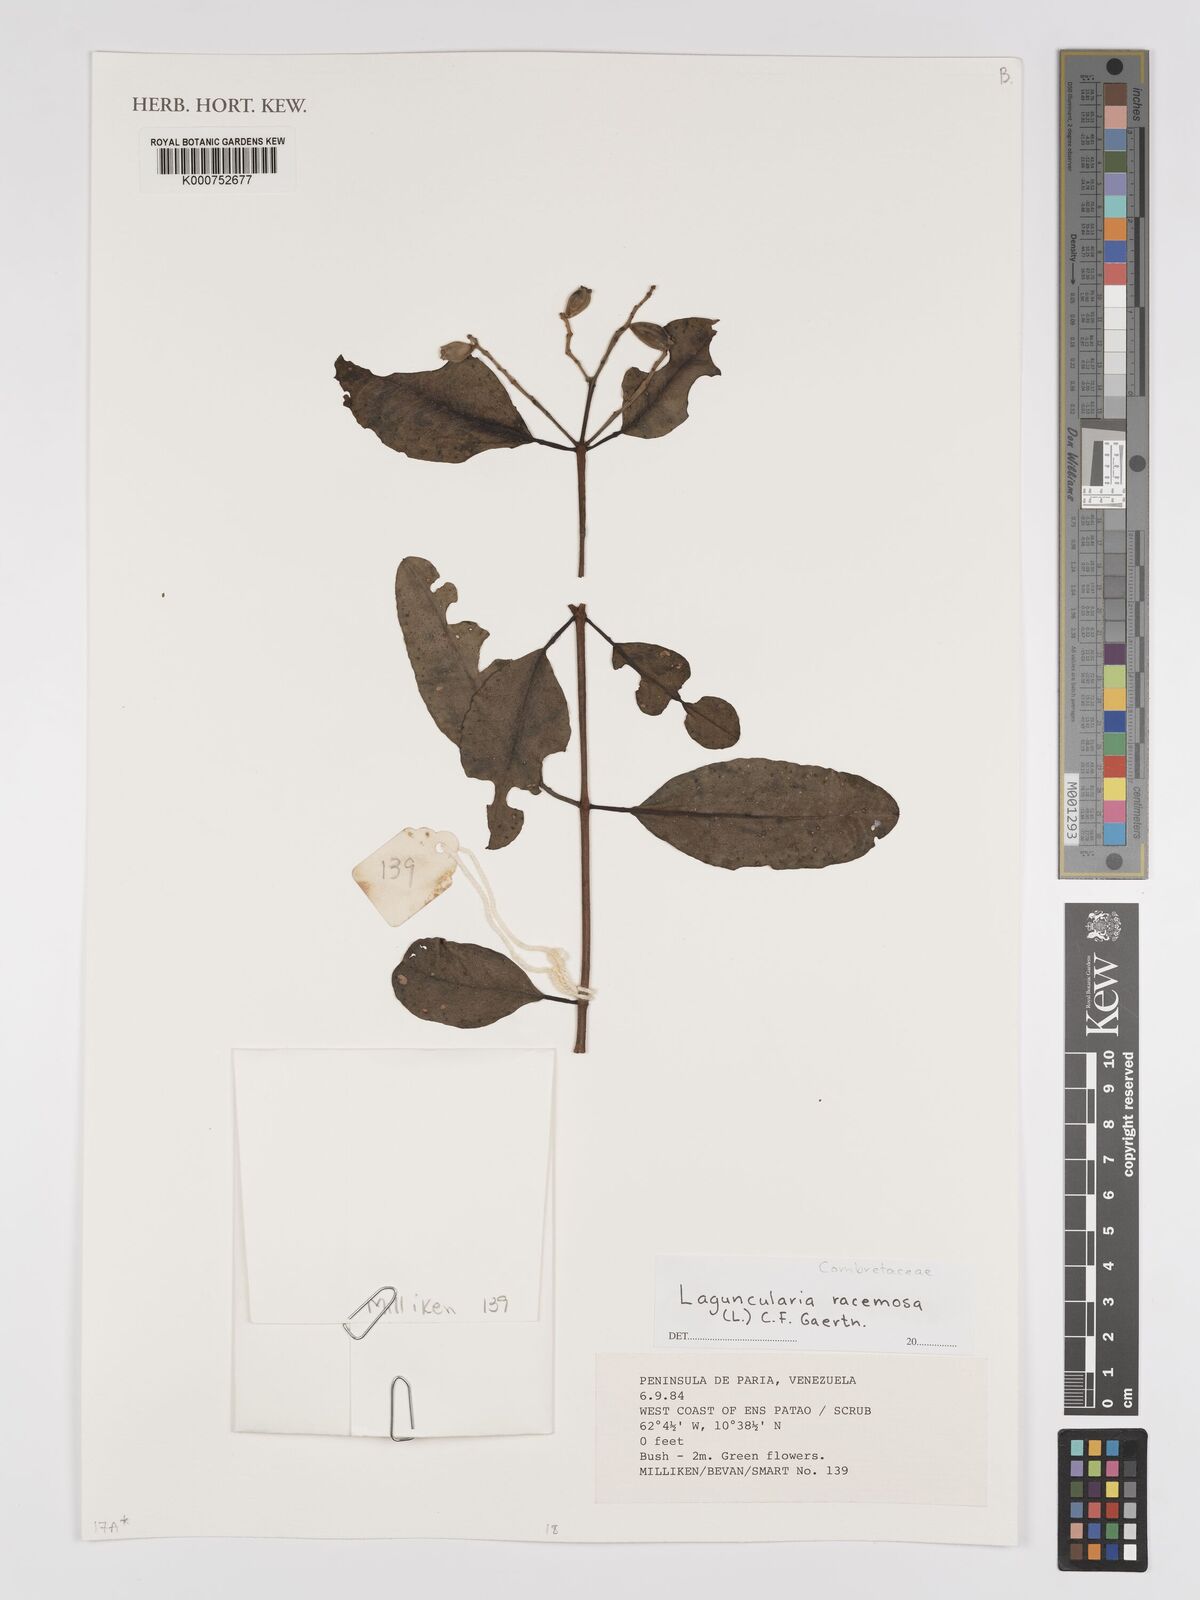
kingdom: Plantae
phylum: Tracheophyta
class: Magnoliopsida
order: Myrtales
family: Combretaceae
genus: Laguncularia
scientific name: Laguncularia racemosa
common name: White mangrove
